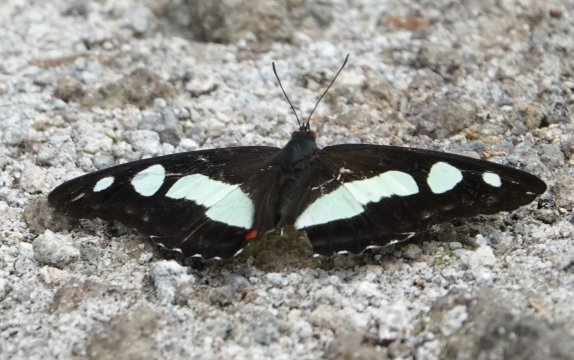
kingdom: Animalia
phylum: Arthropoda
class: Insecta
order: Lepidoptera
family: Nymphalidae
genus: Pyrrhogyra
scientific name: Pyrrhogyra edocla
